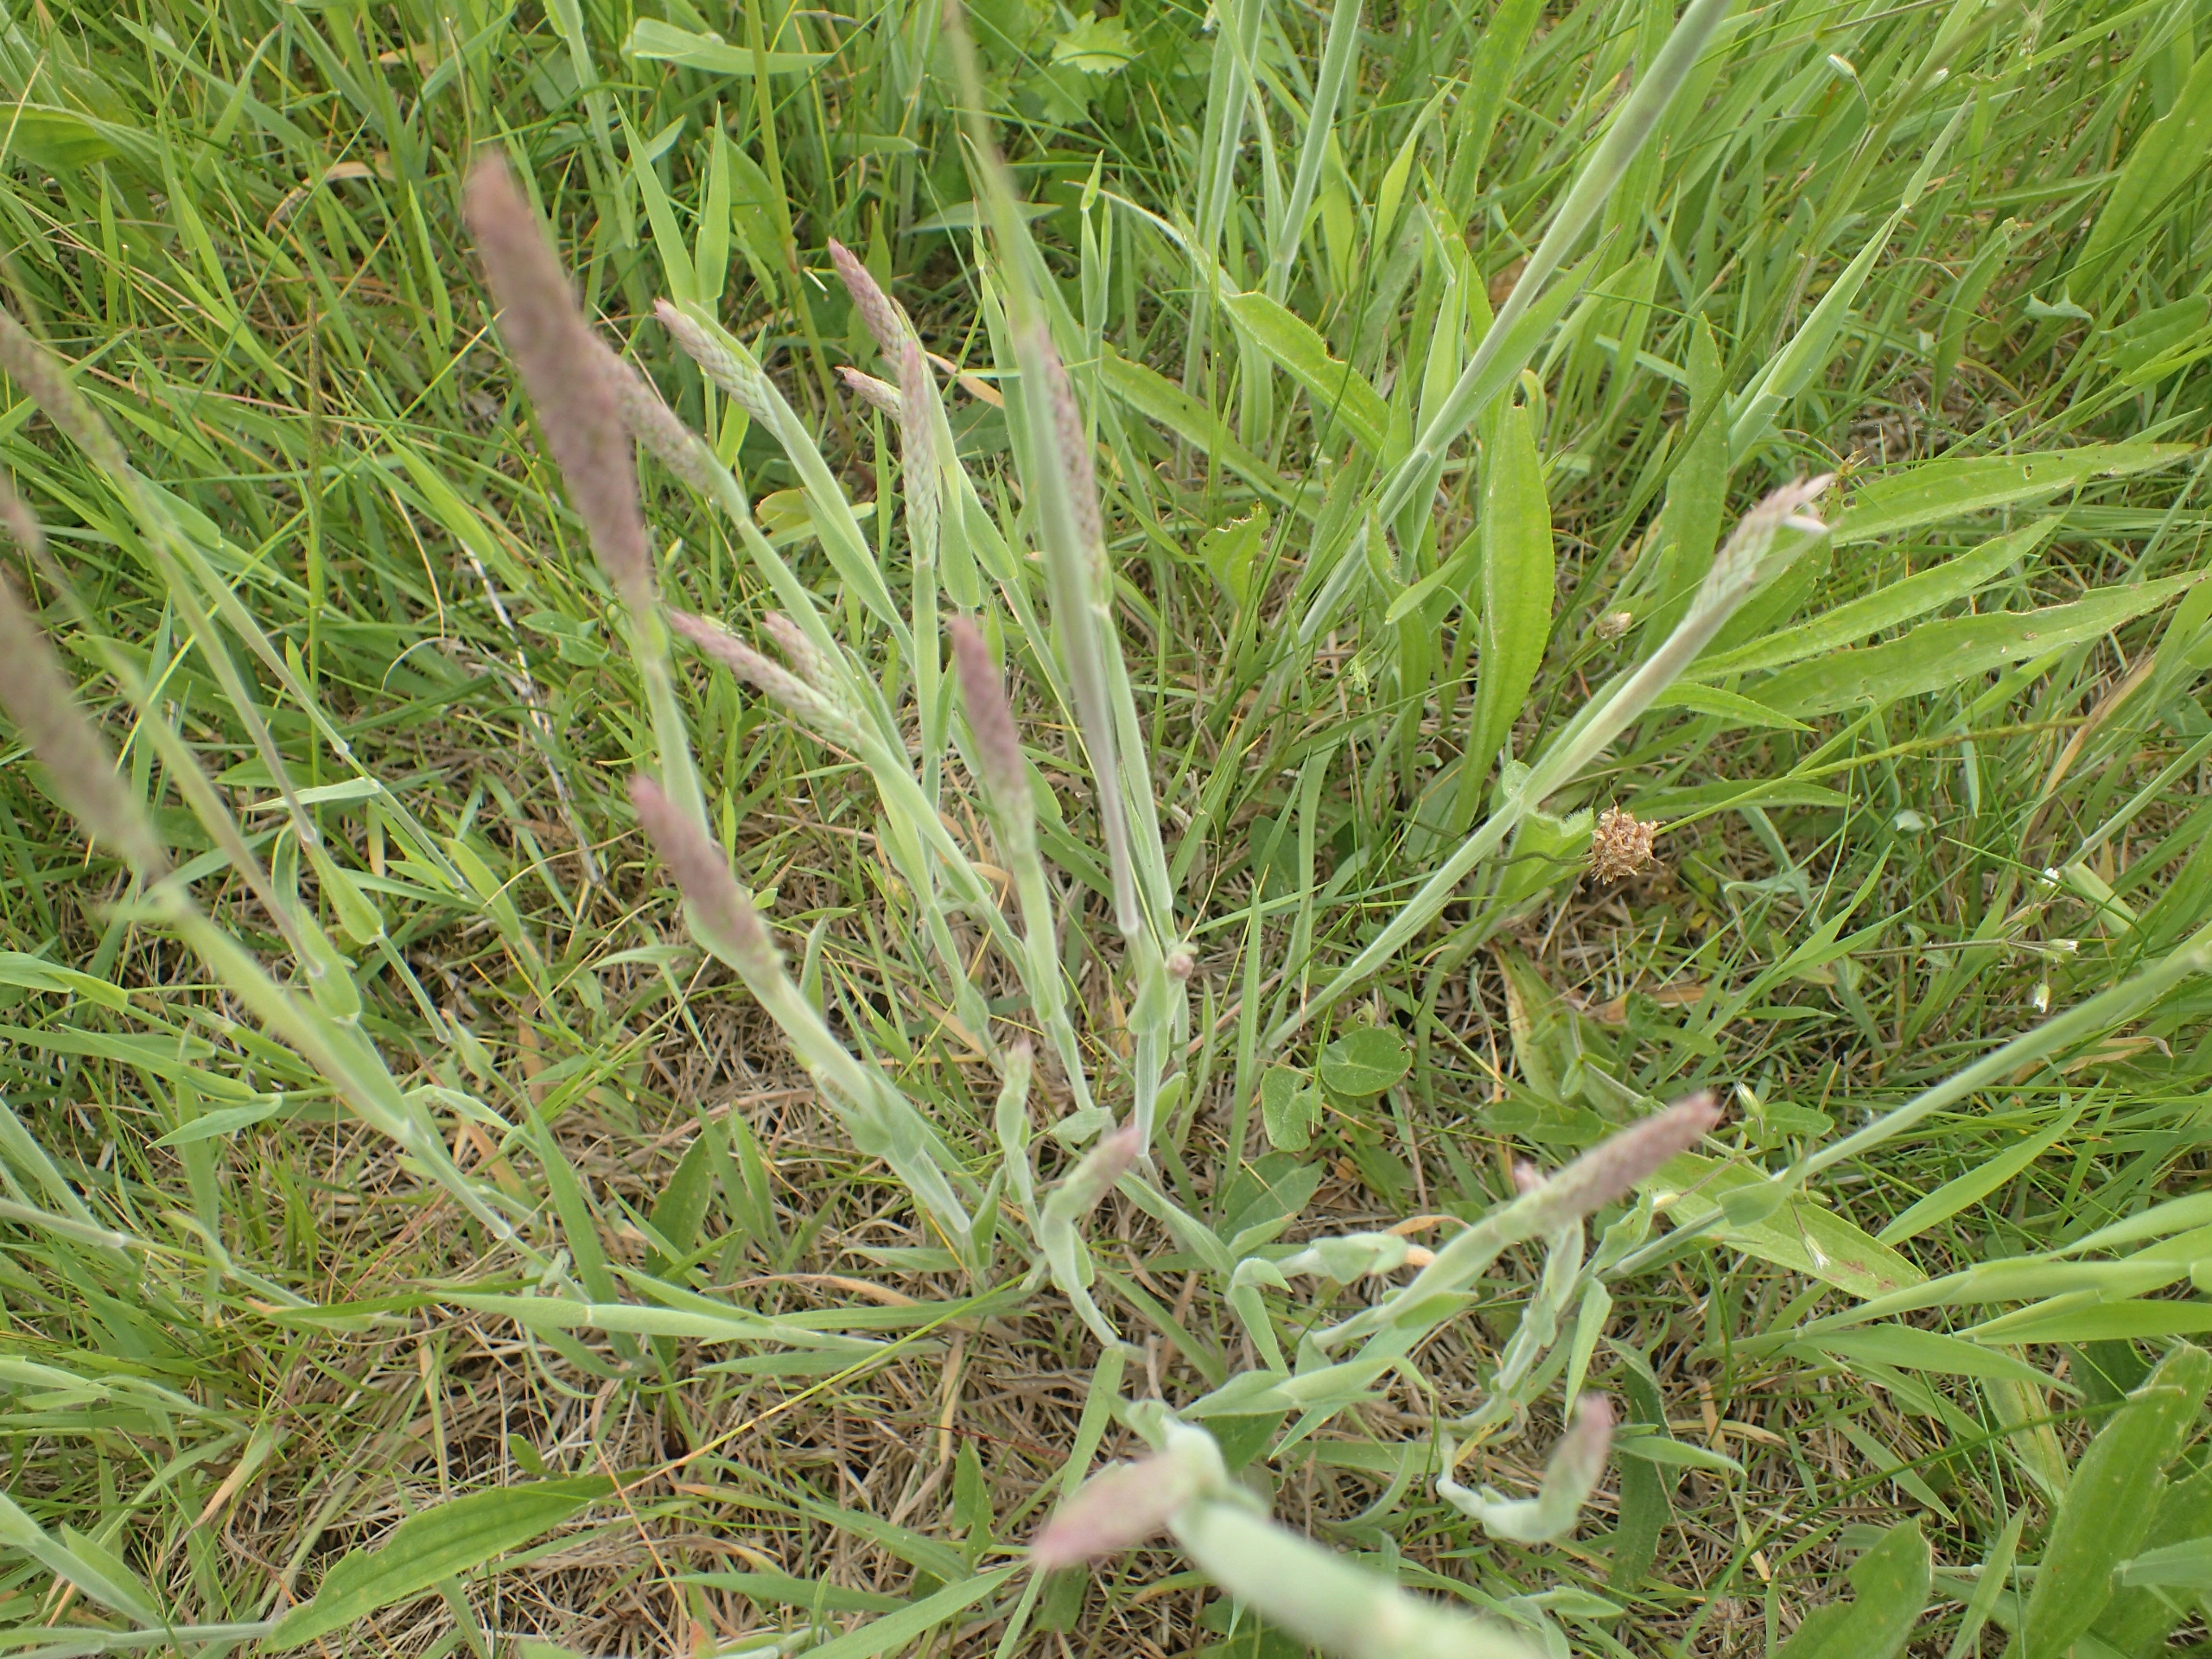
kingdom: Plantae
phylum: Tracheophyta
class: Liliopsida
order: Poales
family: Poaceae
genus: Holcus
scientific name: Holcus lanatus
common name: Fløjlsgræs
